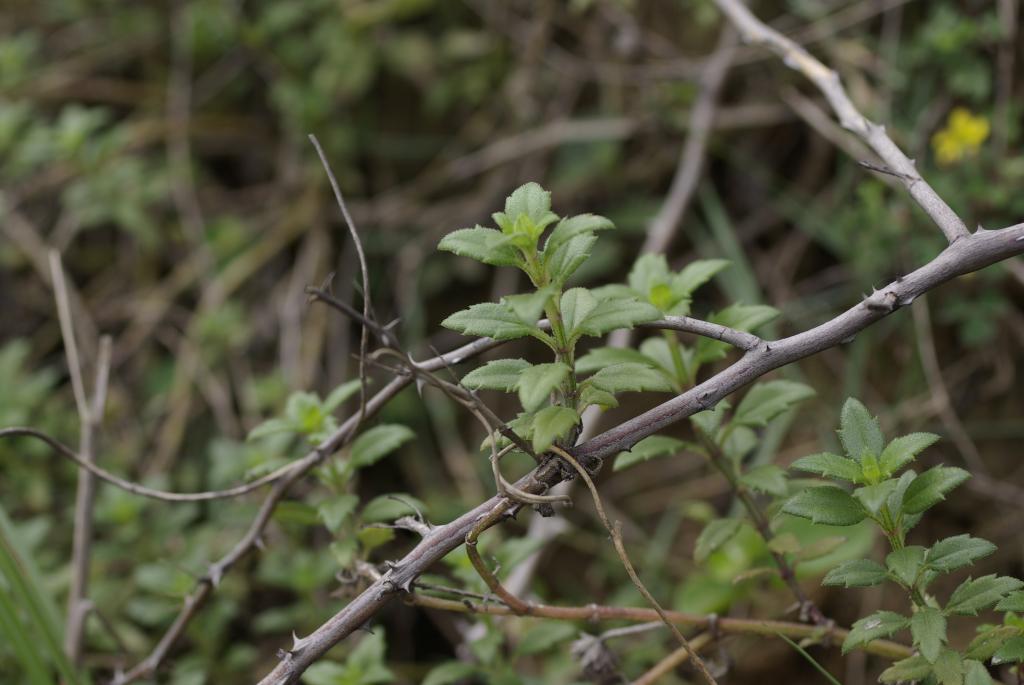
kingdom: Plantae
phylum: Tracheophyta
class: Magnoliopsida
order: Asterales
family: Asteraceae
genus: Melanthera
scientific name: Melanthera prostrata
